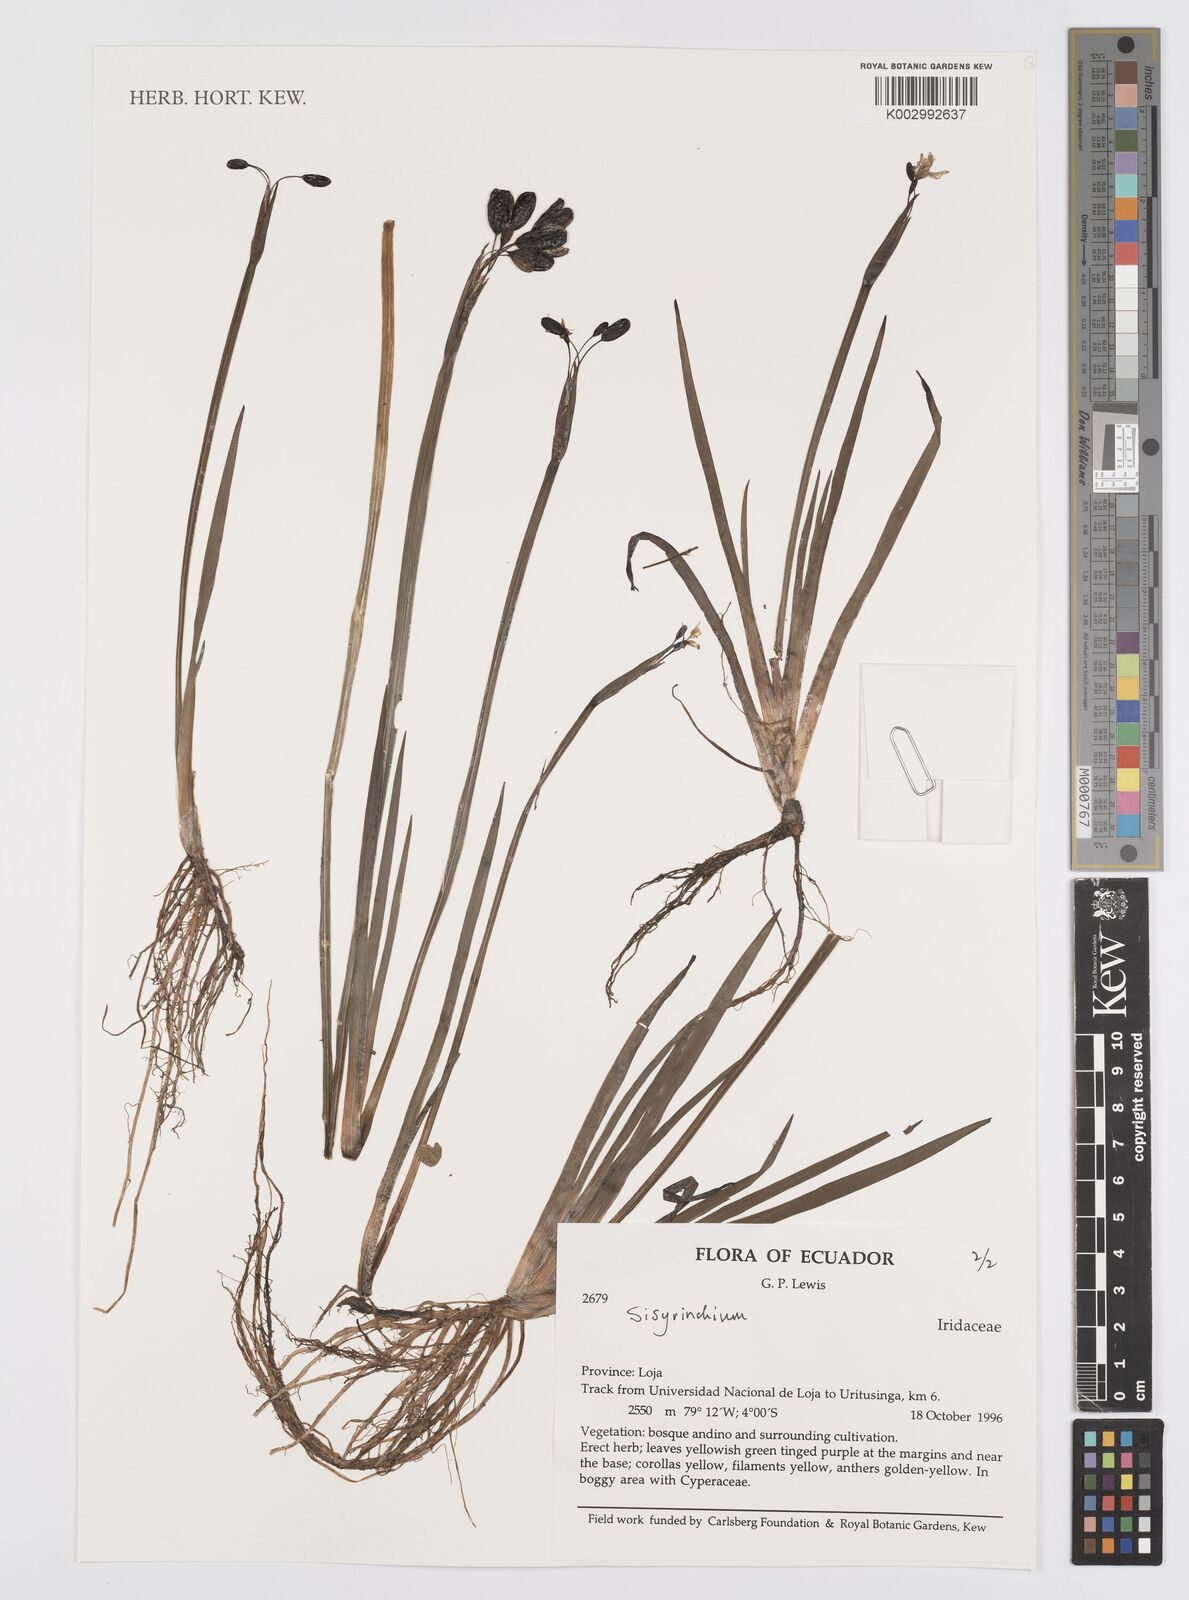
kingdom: Plantae
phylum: Tracheophyta
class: Liliopsida
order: Asparagales
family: Iridaceae
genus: Sisyrinchium
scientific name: Sisyrinchium
